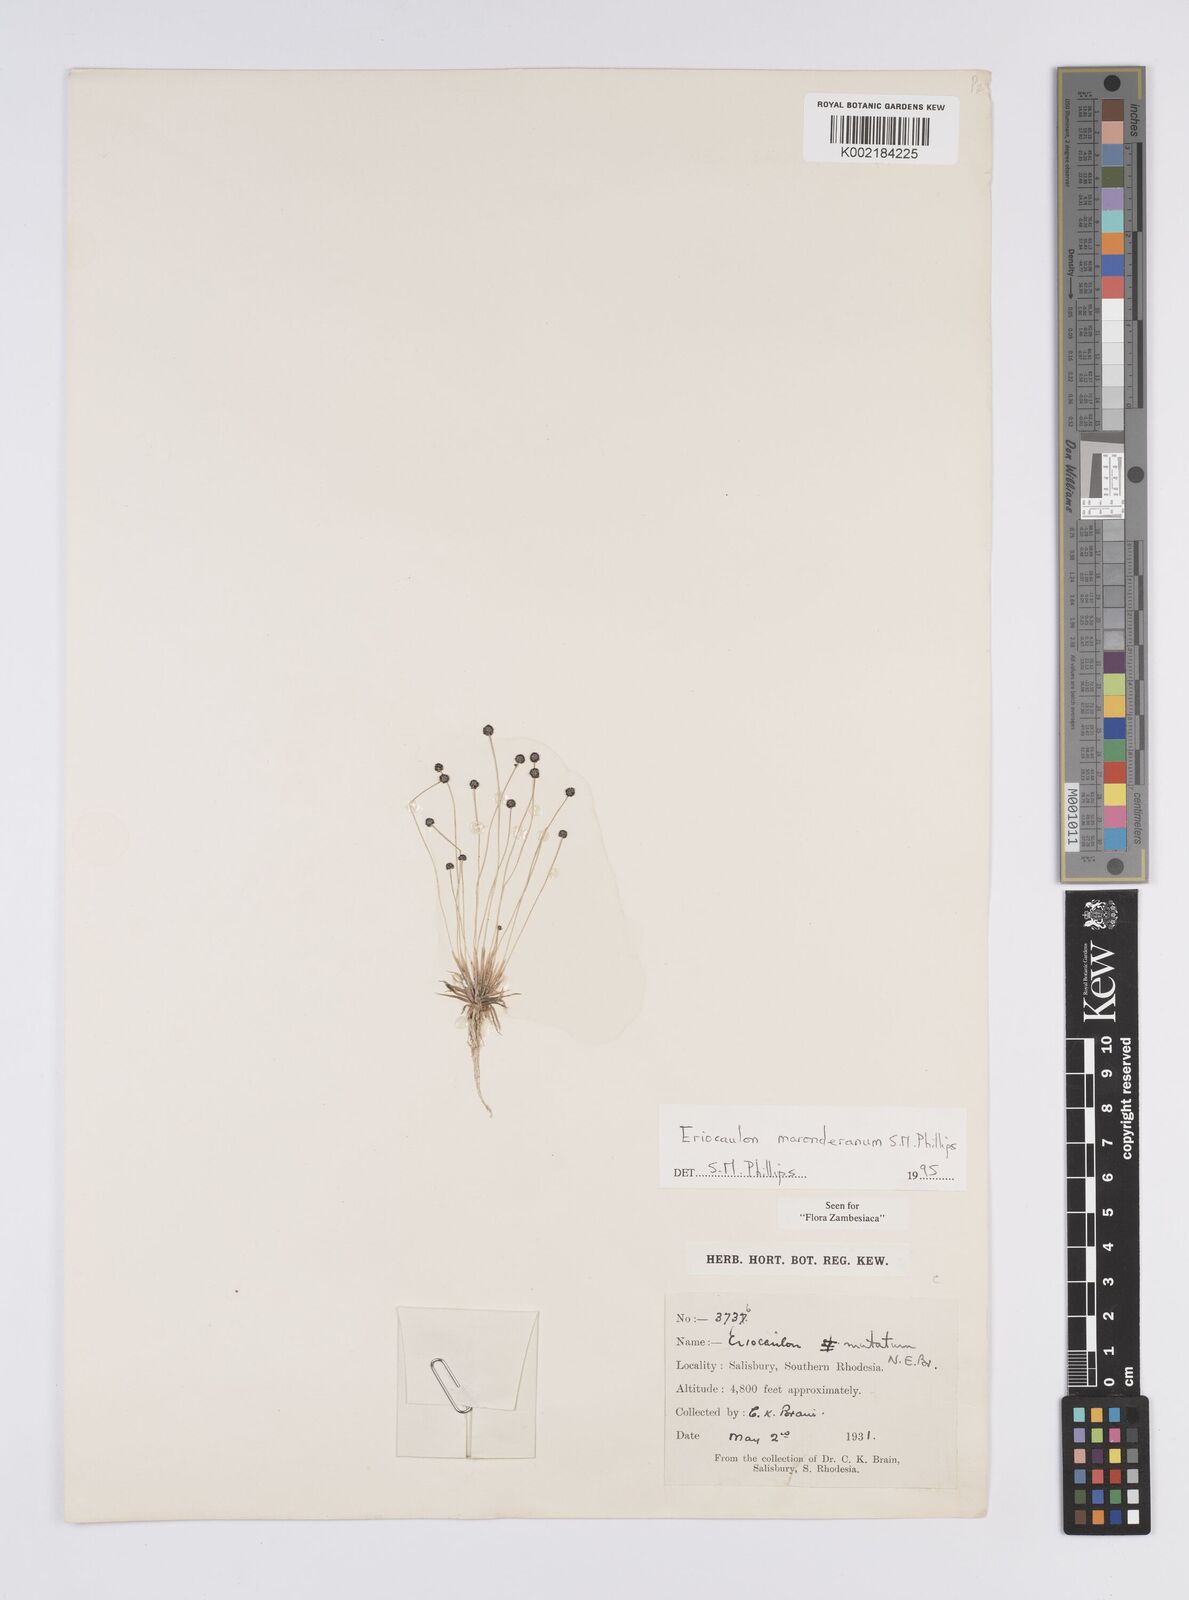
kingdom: Plantae
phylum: Tracheophyta
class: Liliopsida
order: Poales
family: Eriocaulaceae
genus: Eriocaulon
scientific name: Eriocaulon maronderanum
